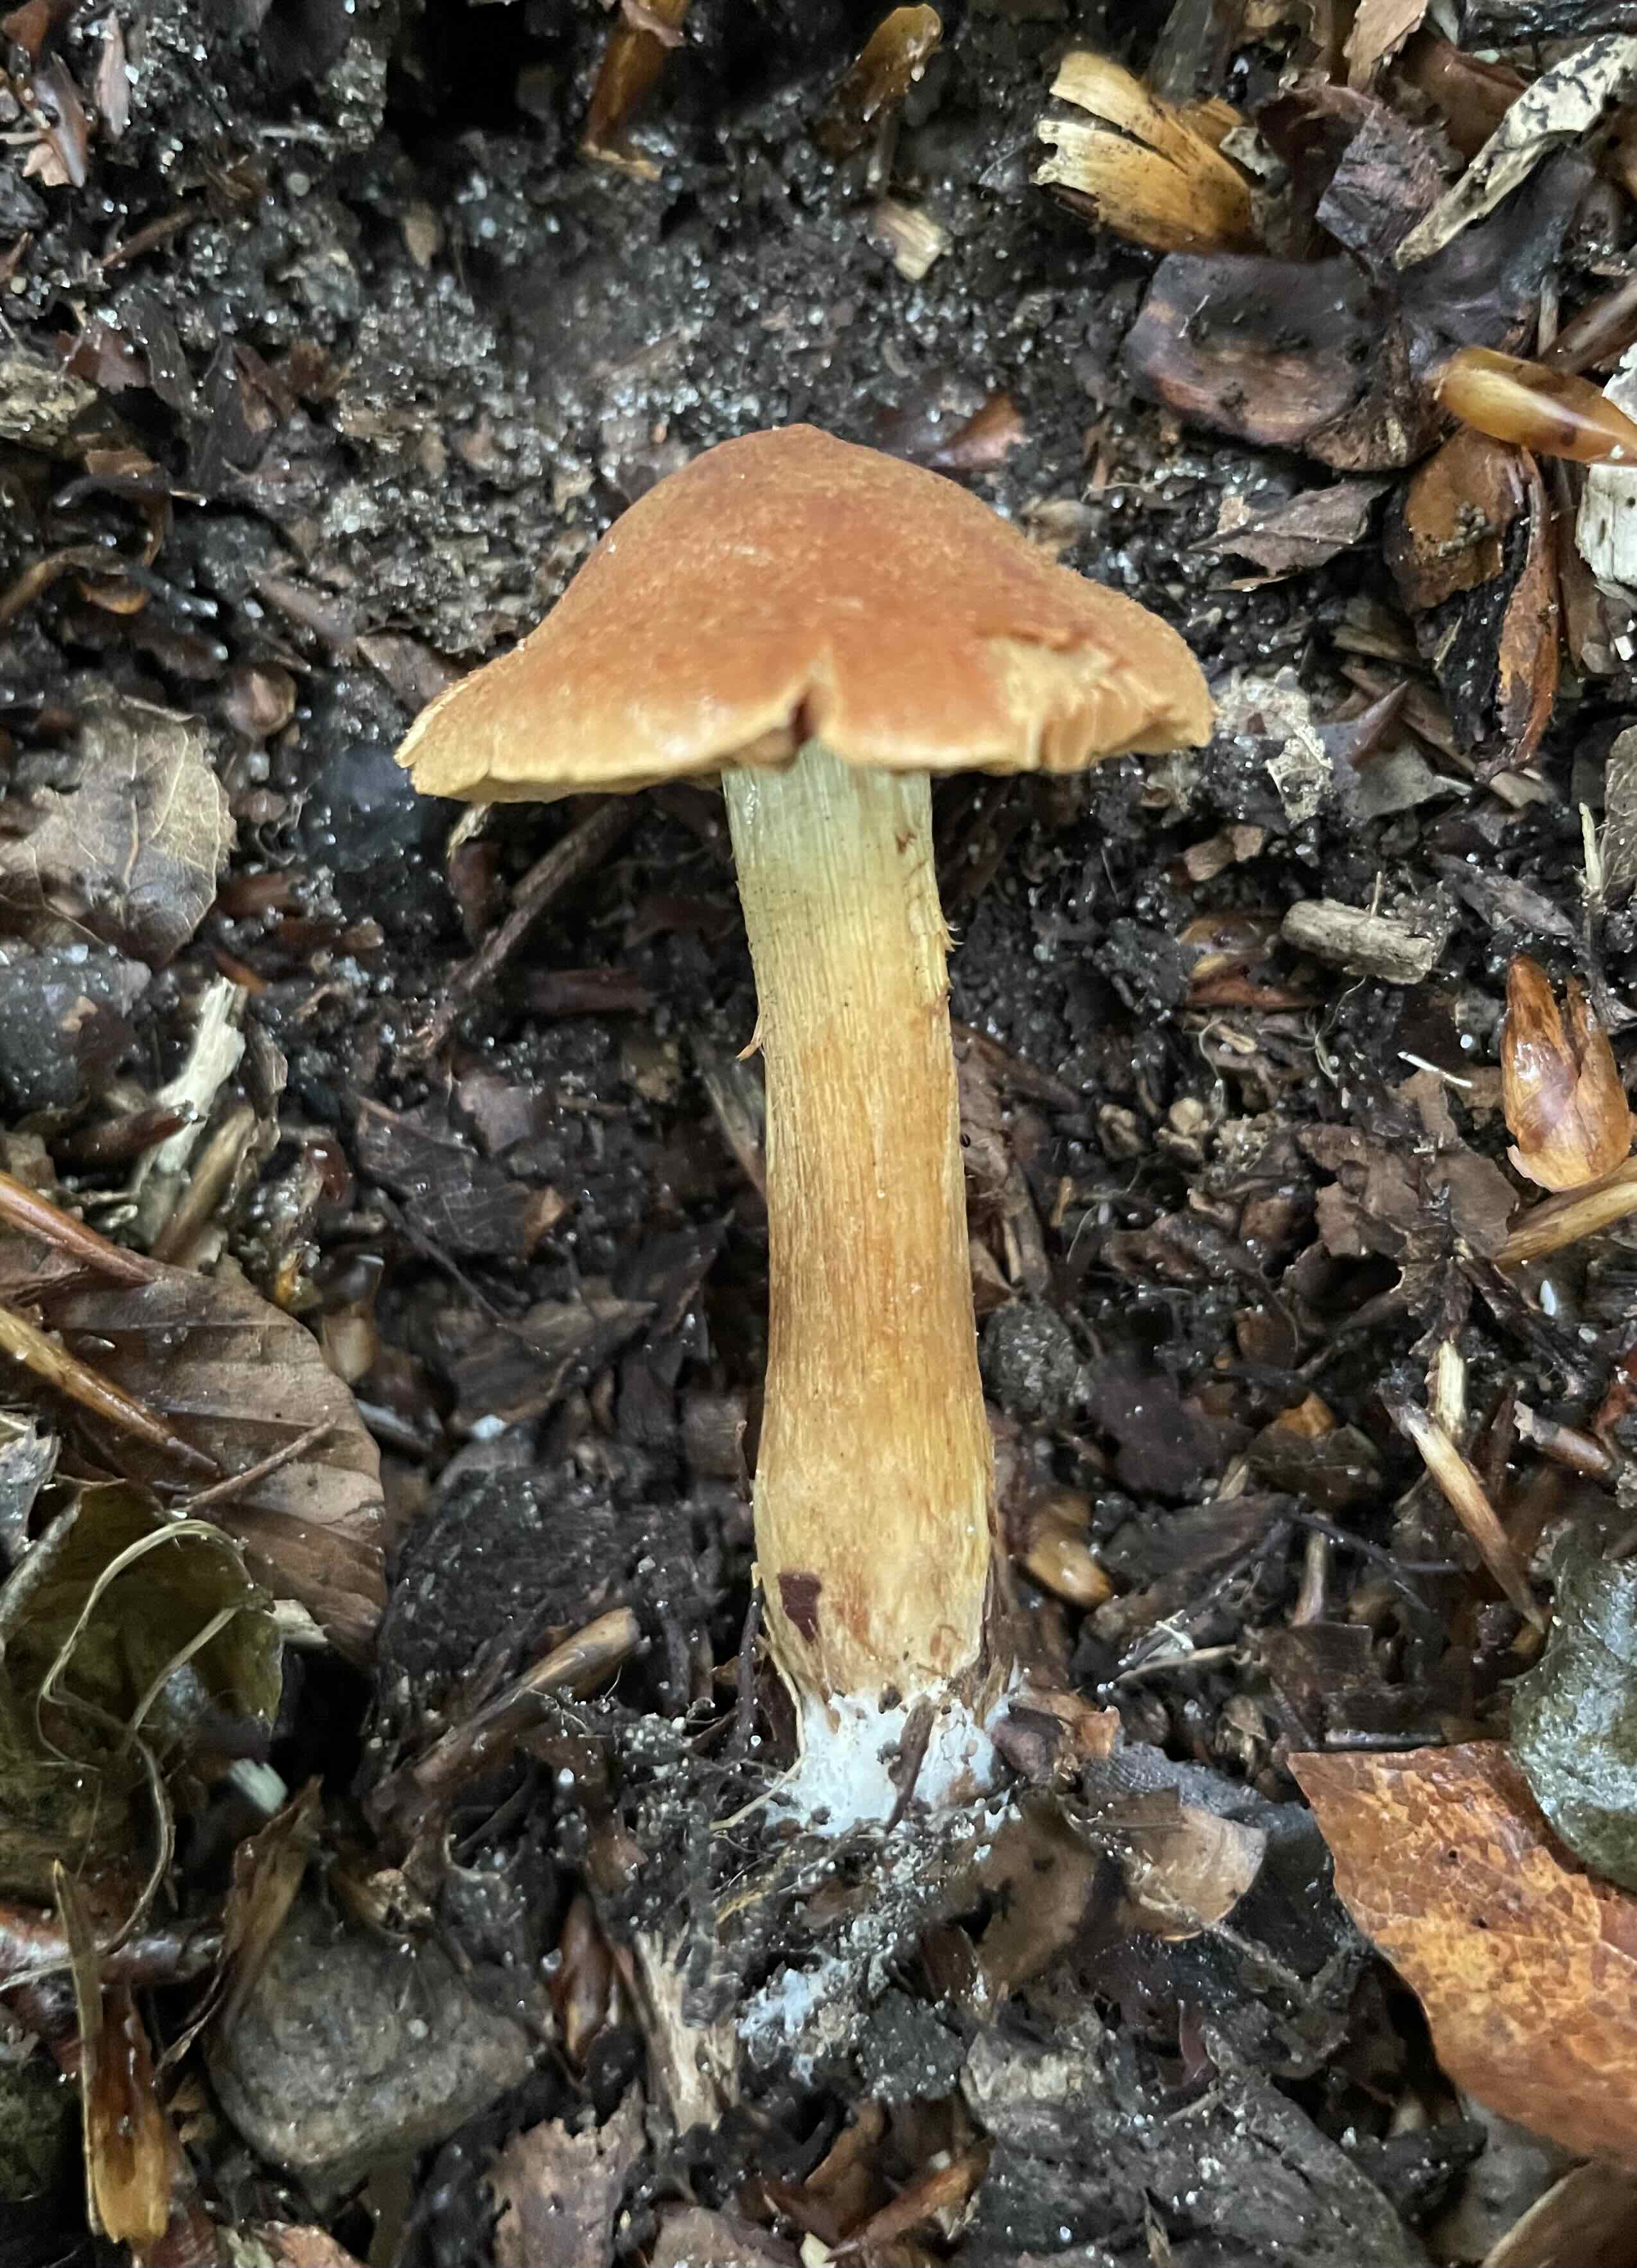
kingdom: Fungi
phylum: Basidiomycota
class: Agaricomycetes
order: Agaricales
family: Cortinariaceae
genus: Cortinarius
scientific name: Cortinarius orellanus
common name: hvælvet gift-slørhat
